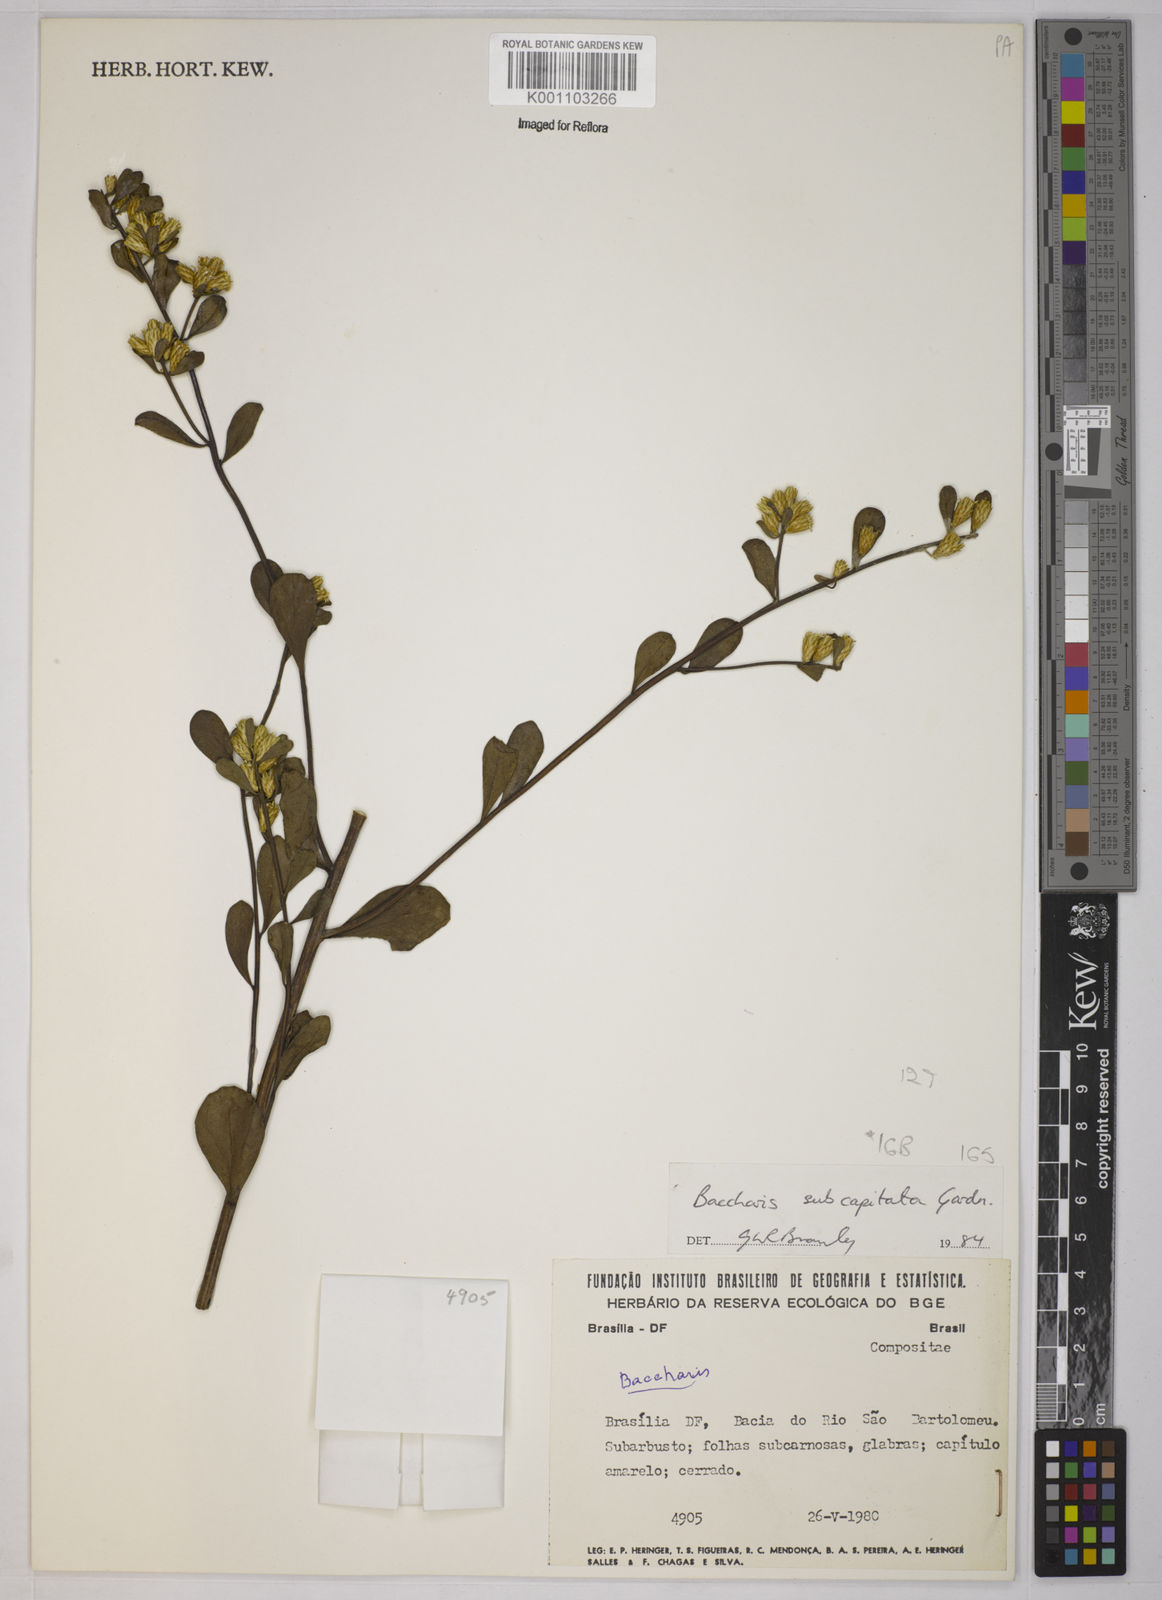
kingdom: Plantae
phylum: Tracheophyta
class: Magnoliopsida
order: Asterales
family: Asteraceae
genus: Baccharis
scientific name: Baccharis tridentata
